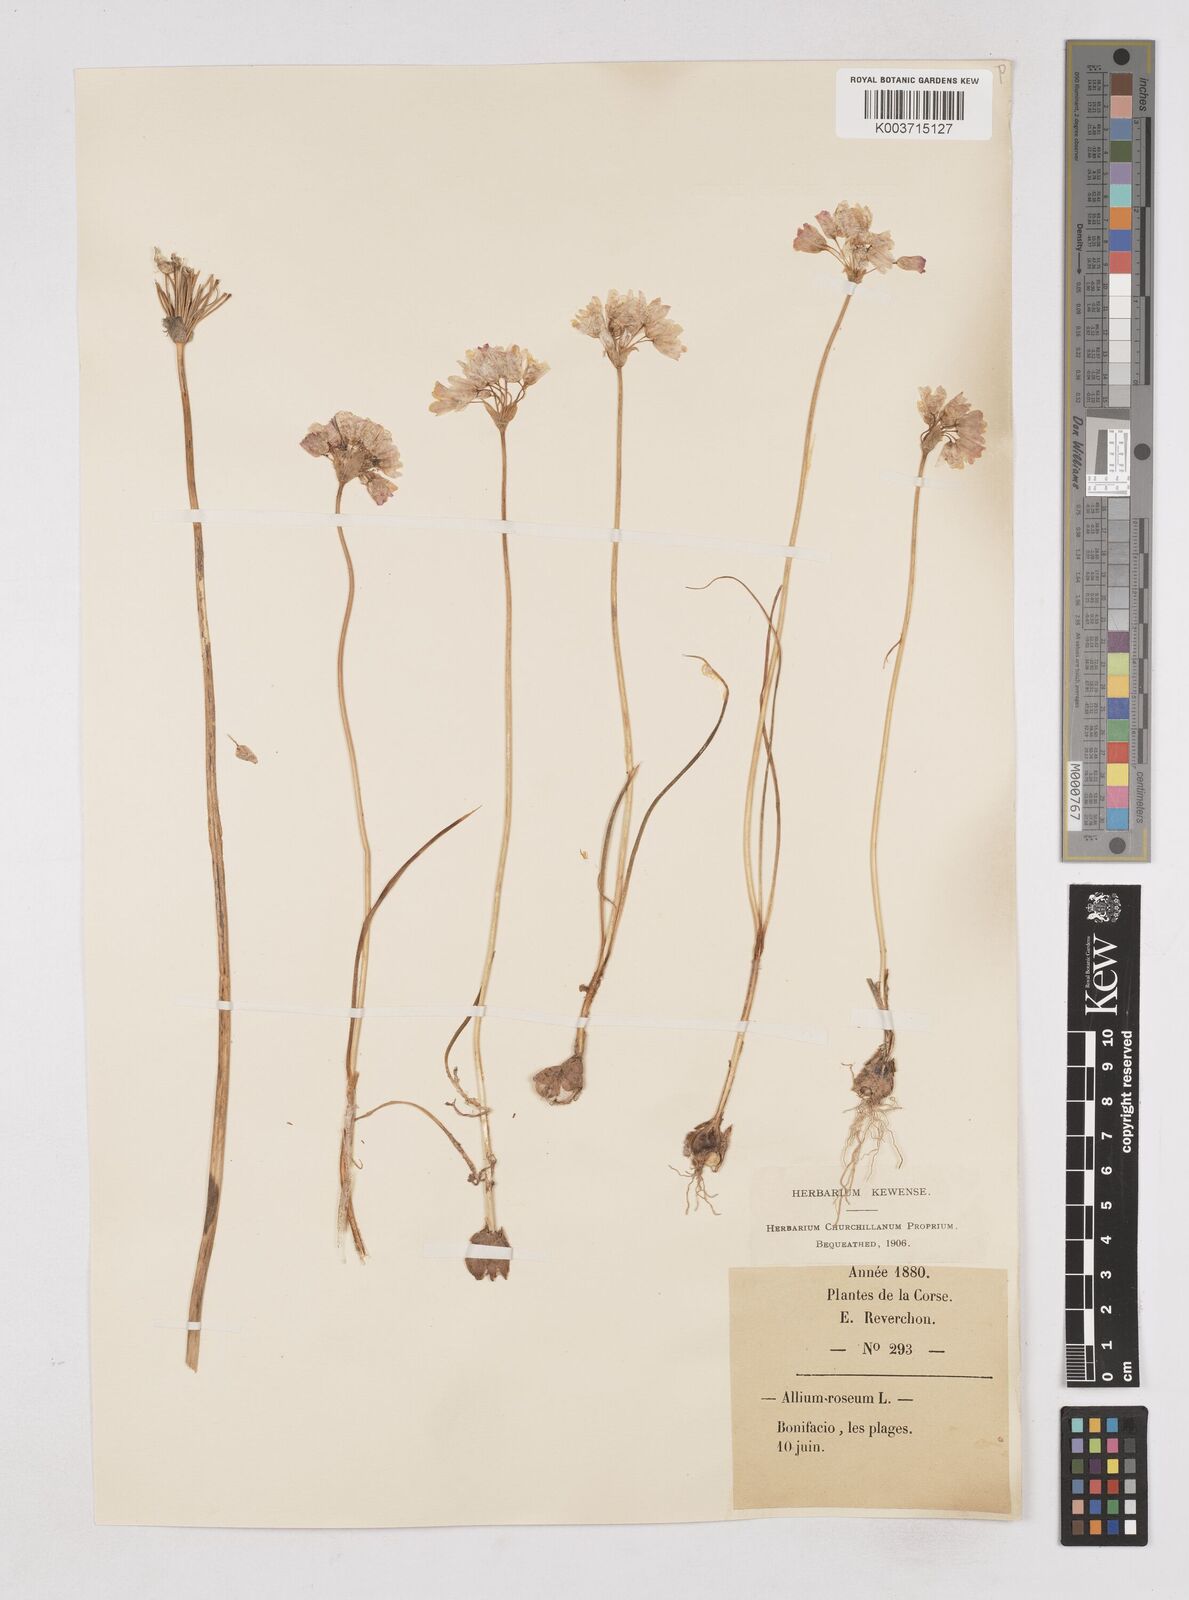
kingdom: Plantae
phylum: Tracheophyta
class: Liliopsida
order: Asparagales
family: Amaryllidaceae
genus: Allium
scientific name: Allium roseum
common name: Rosy garlic
